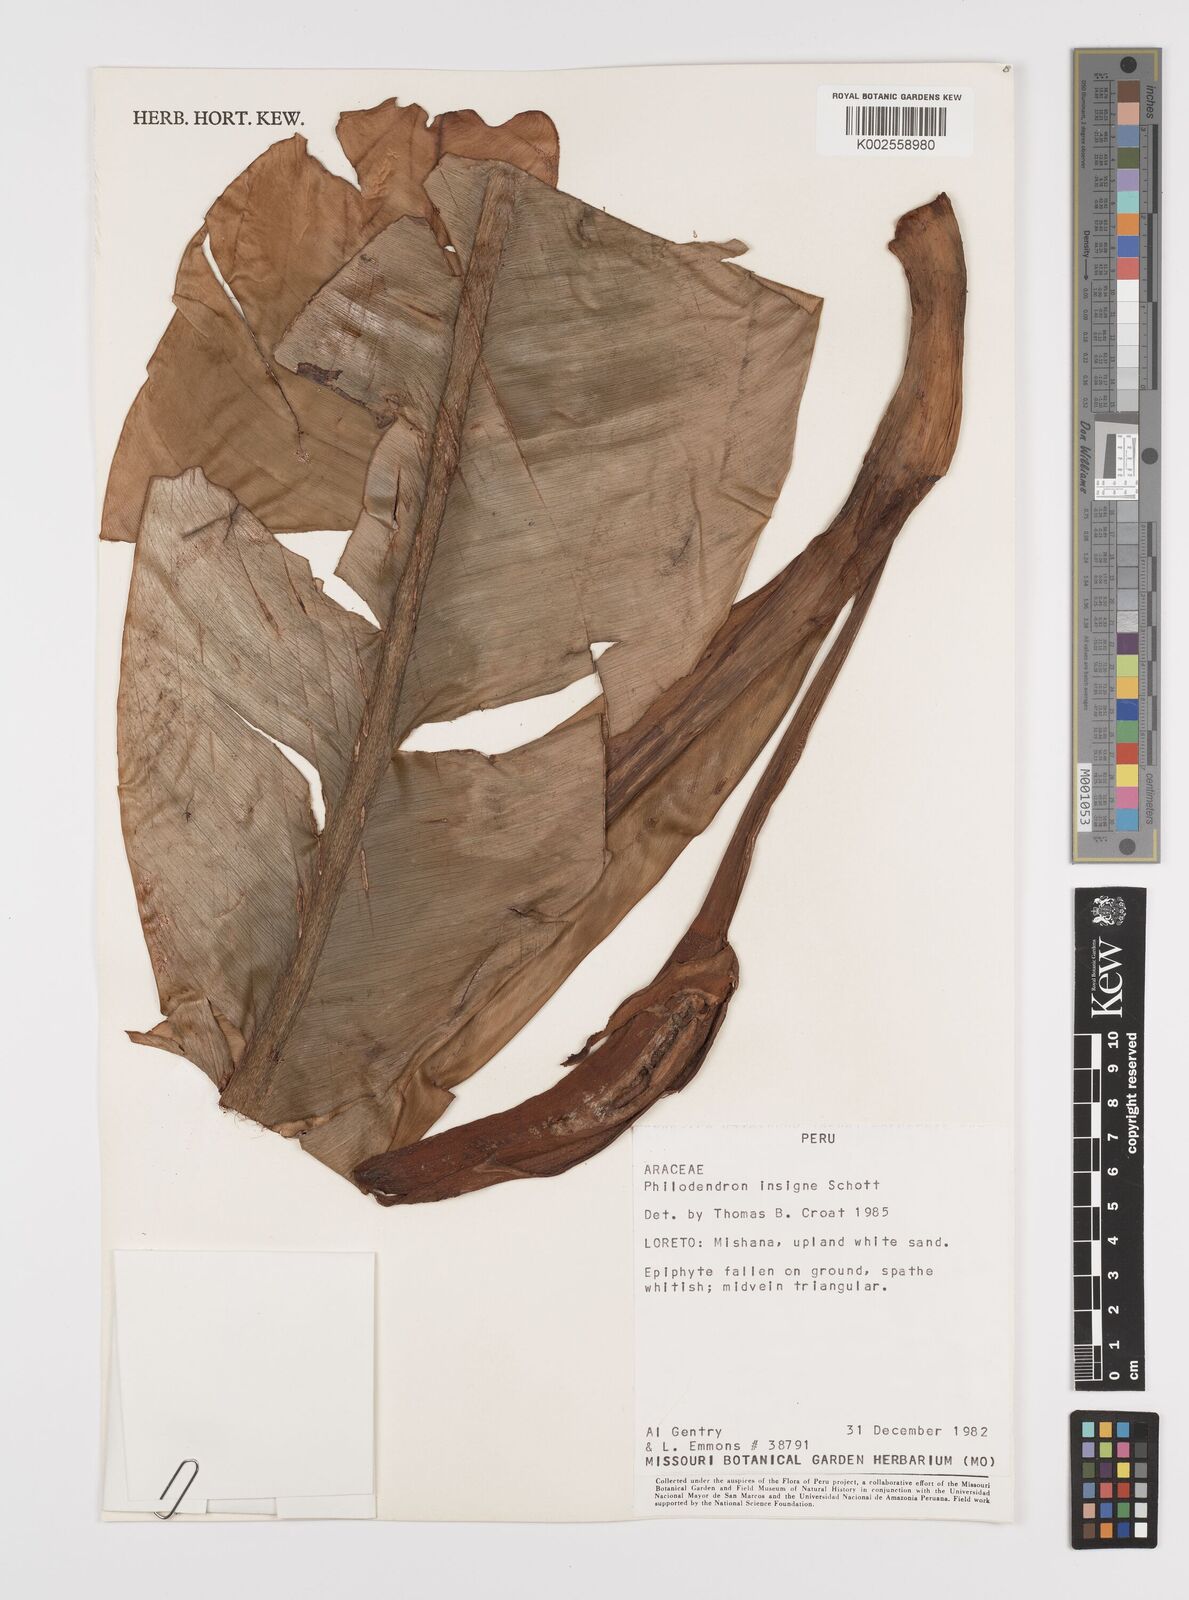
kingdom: Plantae
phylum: Tracheophyta
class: Liliopsida
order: Alismatales
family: Araceae
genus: Philodendron
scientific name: Philodendron insigne
